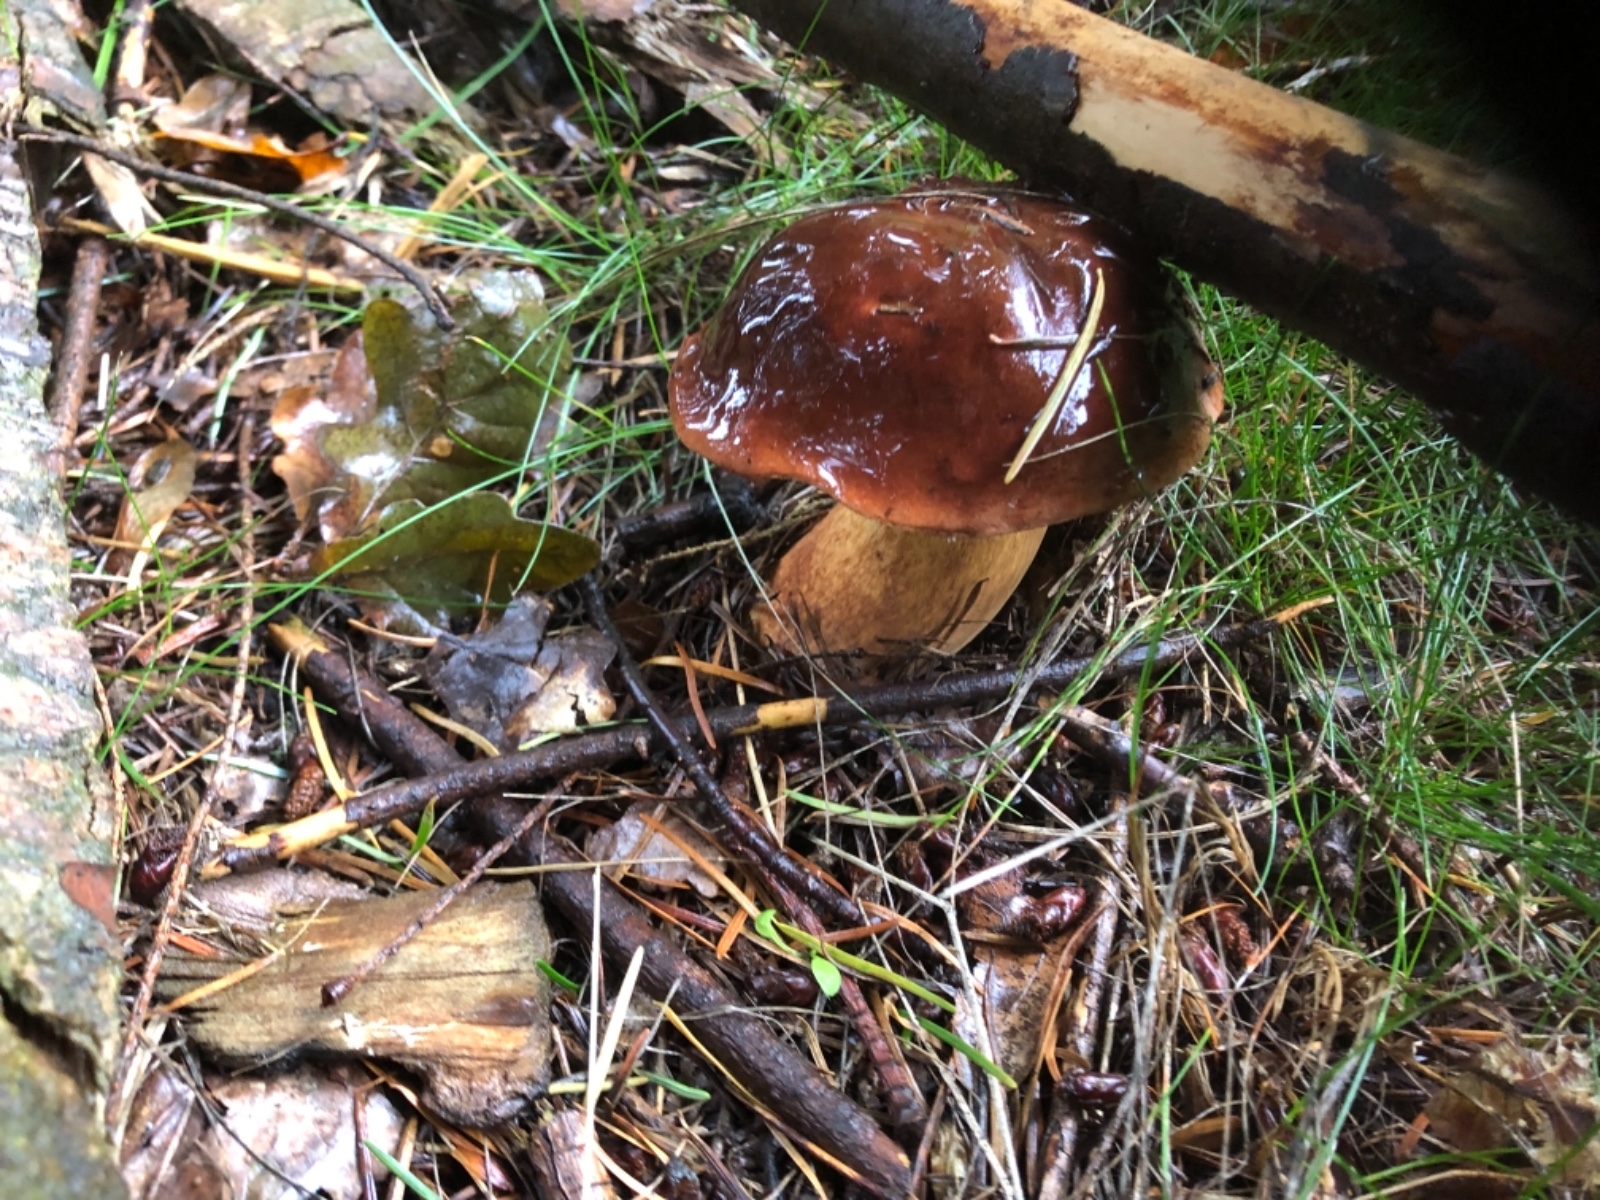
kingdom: Fungi
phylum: Basidiomycota
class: Agaricomycetes
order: Boletales
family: Boletaceae
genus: Imleria
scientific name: Imleria badia
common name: brunstokket rørhat
